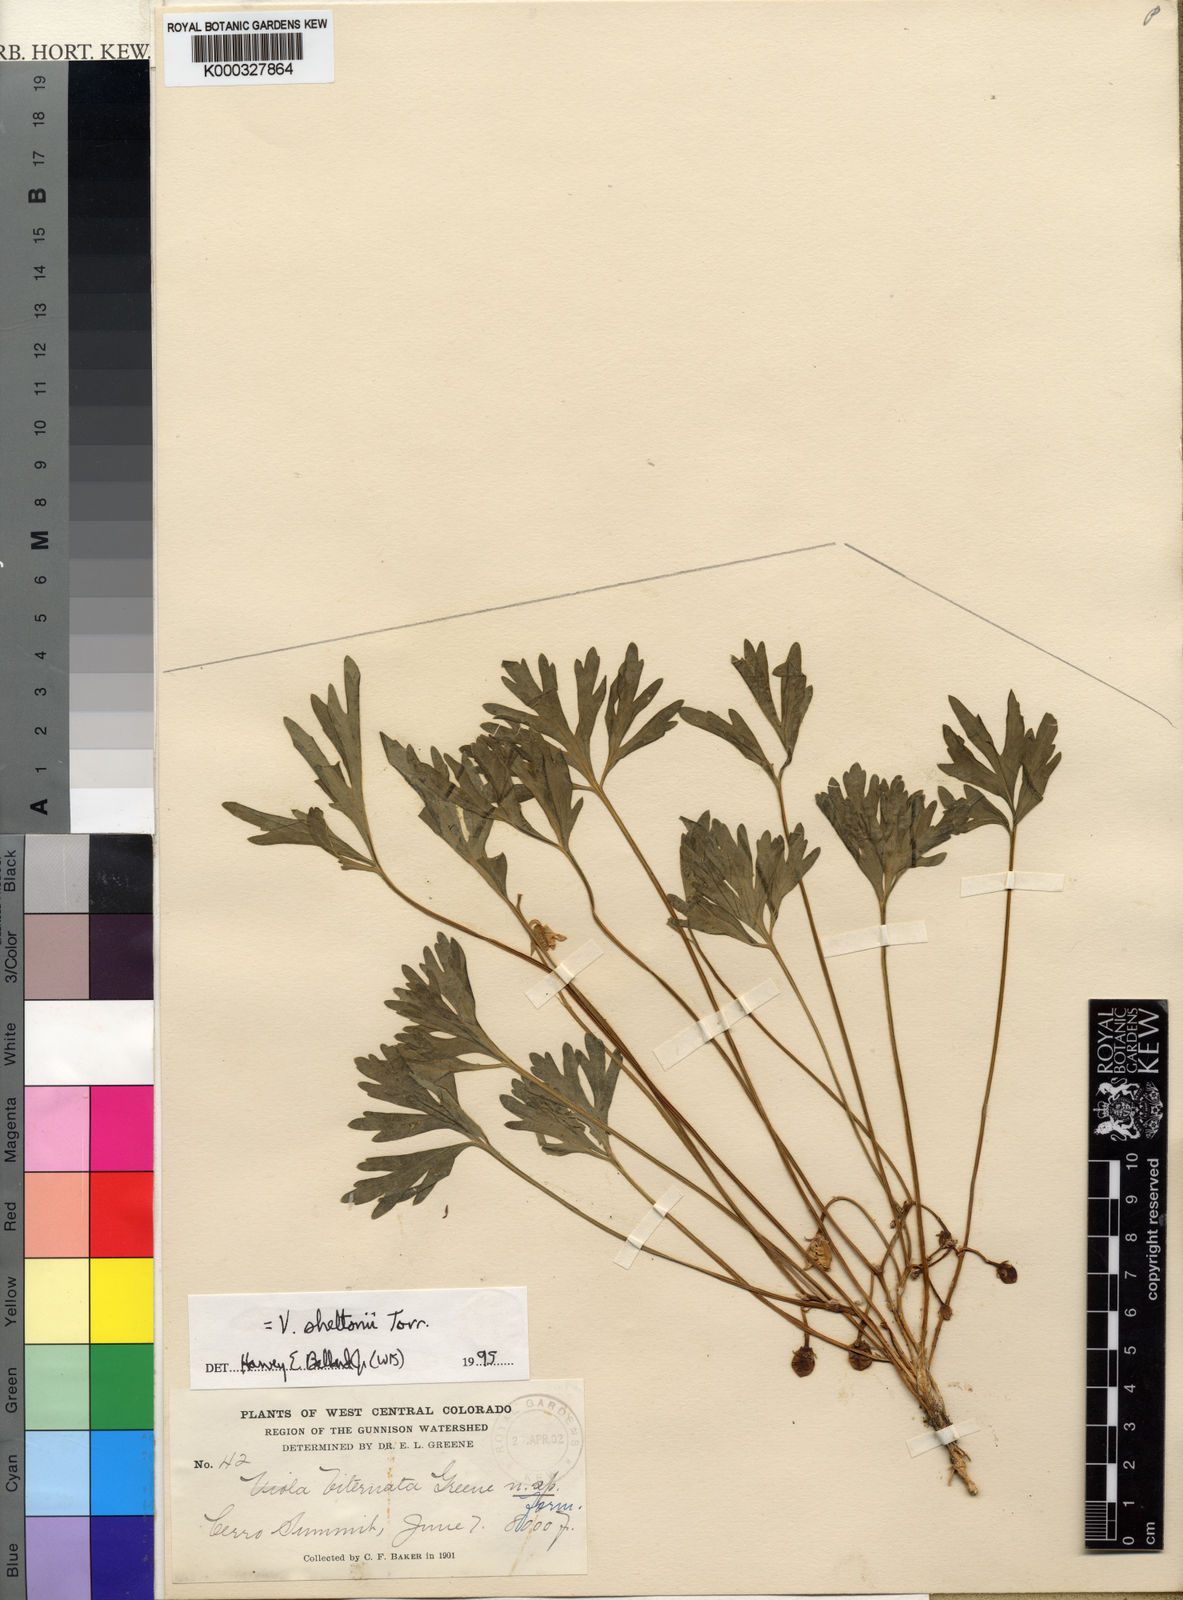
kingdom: Plantae
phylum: Tracheophyta
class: Magnoliopsida
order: Malpighiales
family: Violaceae
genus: Viola
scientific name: Viola sheltonii
